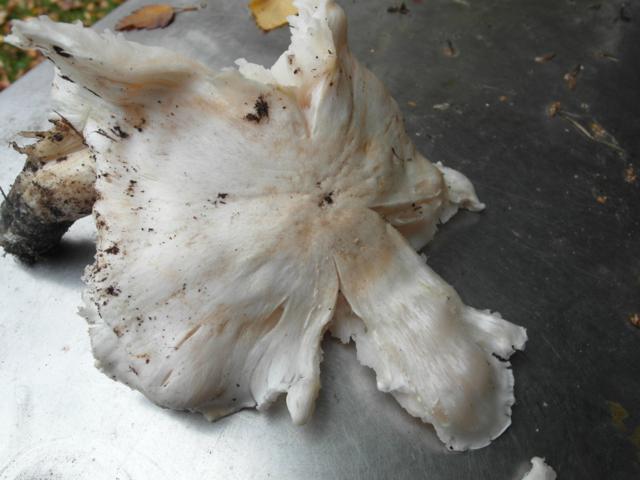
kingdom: Fungi
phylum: Basidiomycota
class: Agaricomycetes
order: Agaricales
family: Tricholomataceae
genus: Tricholoma
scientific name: Tricholoma columbetta
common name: silke-ridderhat
